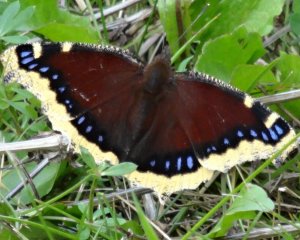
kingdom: Animalia
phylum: Arthropoda
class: Insecta
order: Lepidoptera
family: Nymphalidae
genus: Nymphalis
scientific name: Nymphalis antiopa
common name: Mourning Cloak
